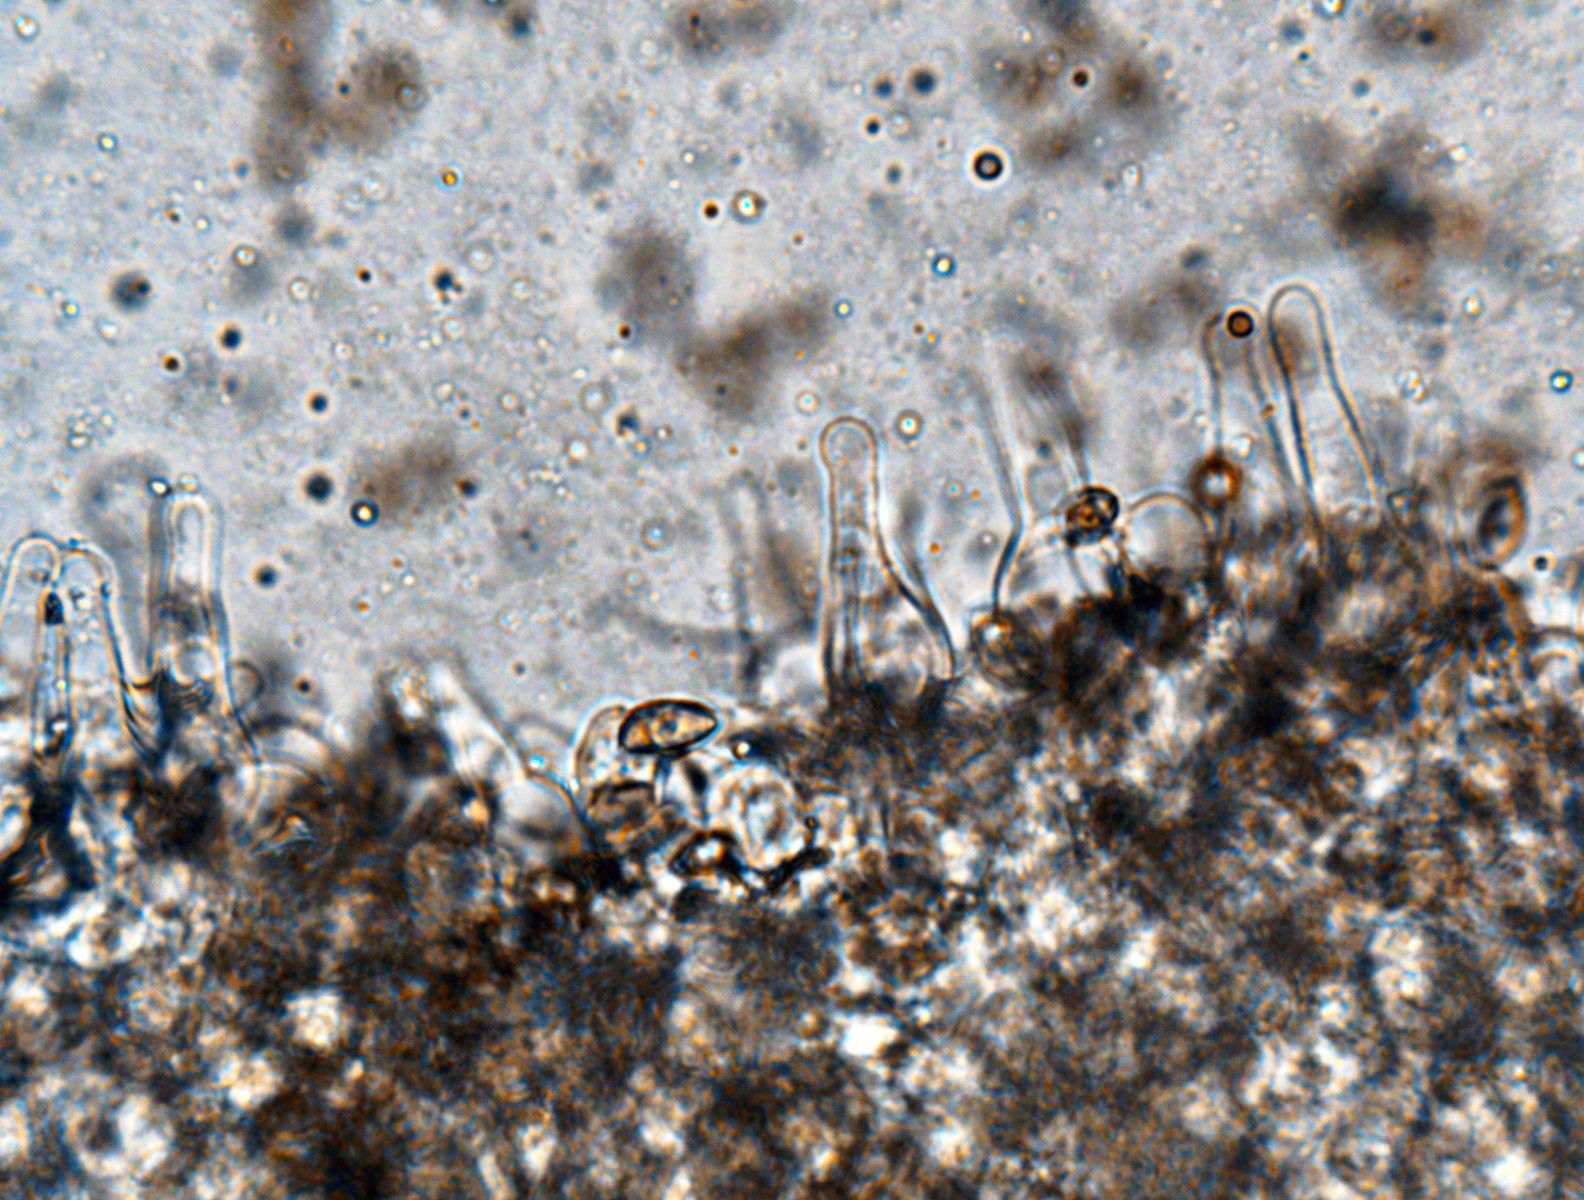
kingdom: Fungi
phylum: Basidiomycota
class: Agaricomycetes
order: Agaricales
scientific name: Agaricales
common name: champignonordenen
